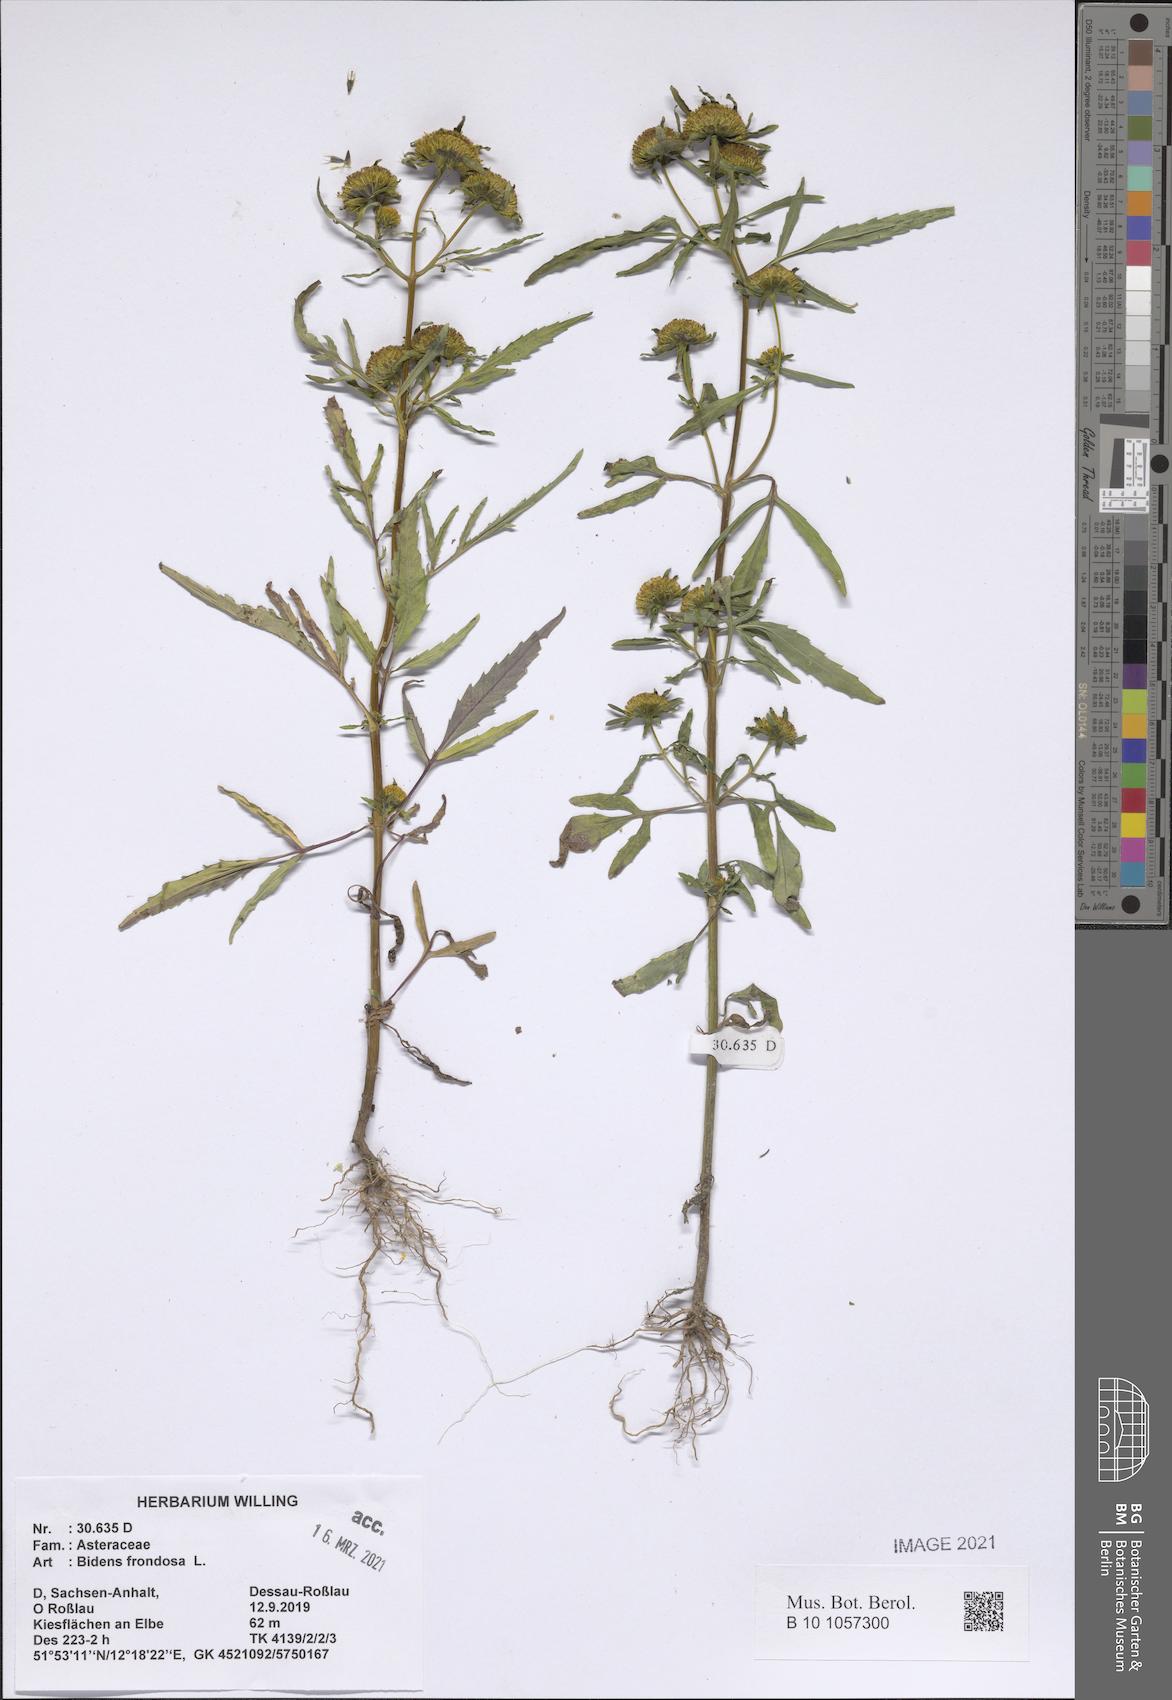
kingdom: Plantae
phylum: Tracheophyta
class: Magnoliopsida
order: Asterales
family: Asteraceae
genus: Bidens
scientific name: Bidens frondosa
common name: Beggarticks
